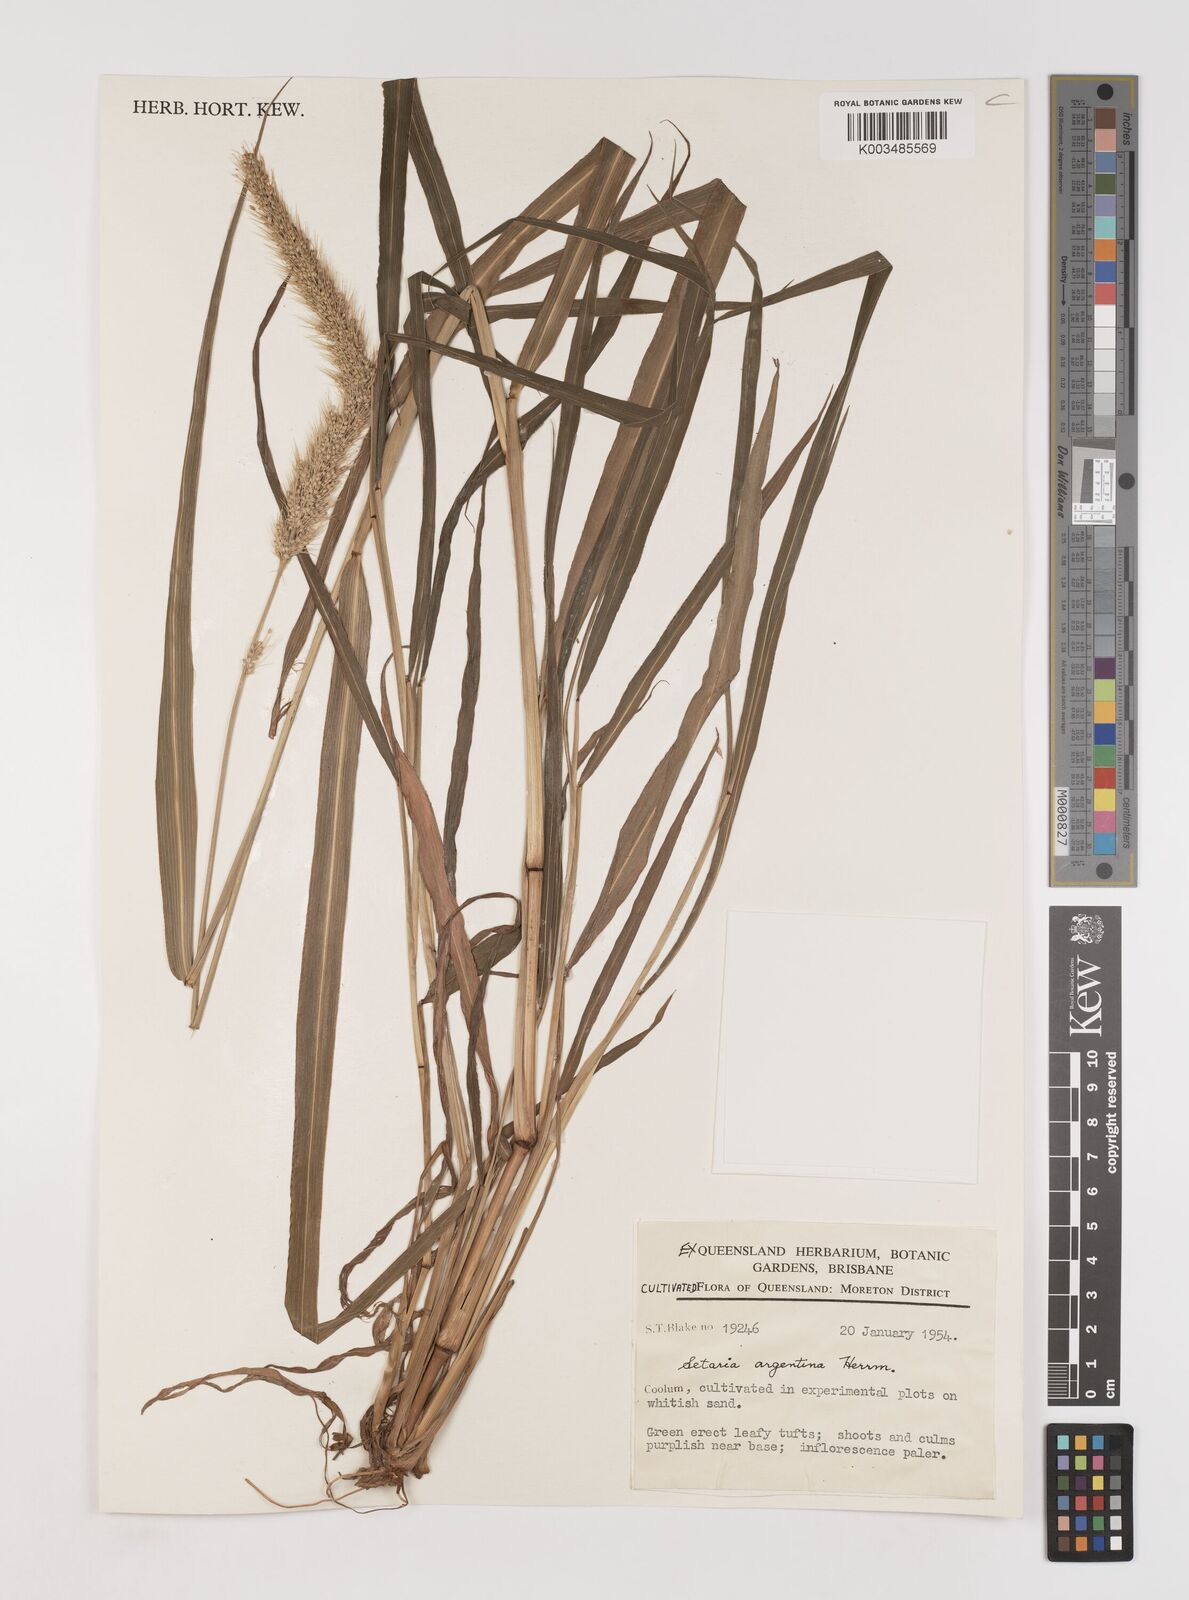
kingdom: Plantae
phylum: Tracheophyta
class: Liliopsida
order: Poales
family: Poaceae
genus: Setaria
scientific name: Setaria
